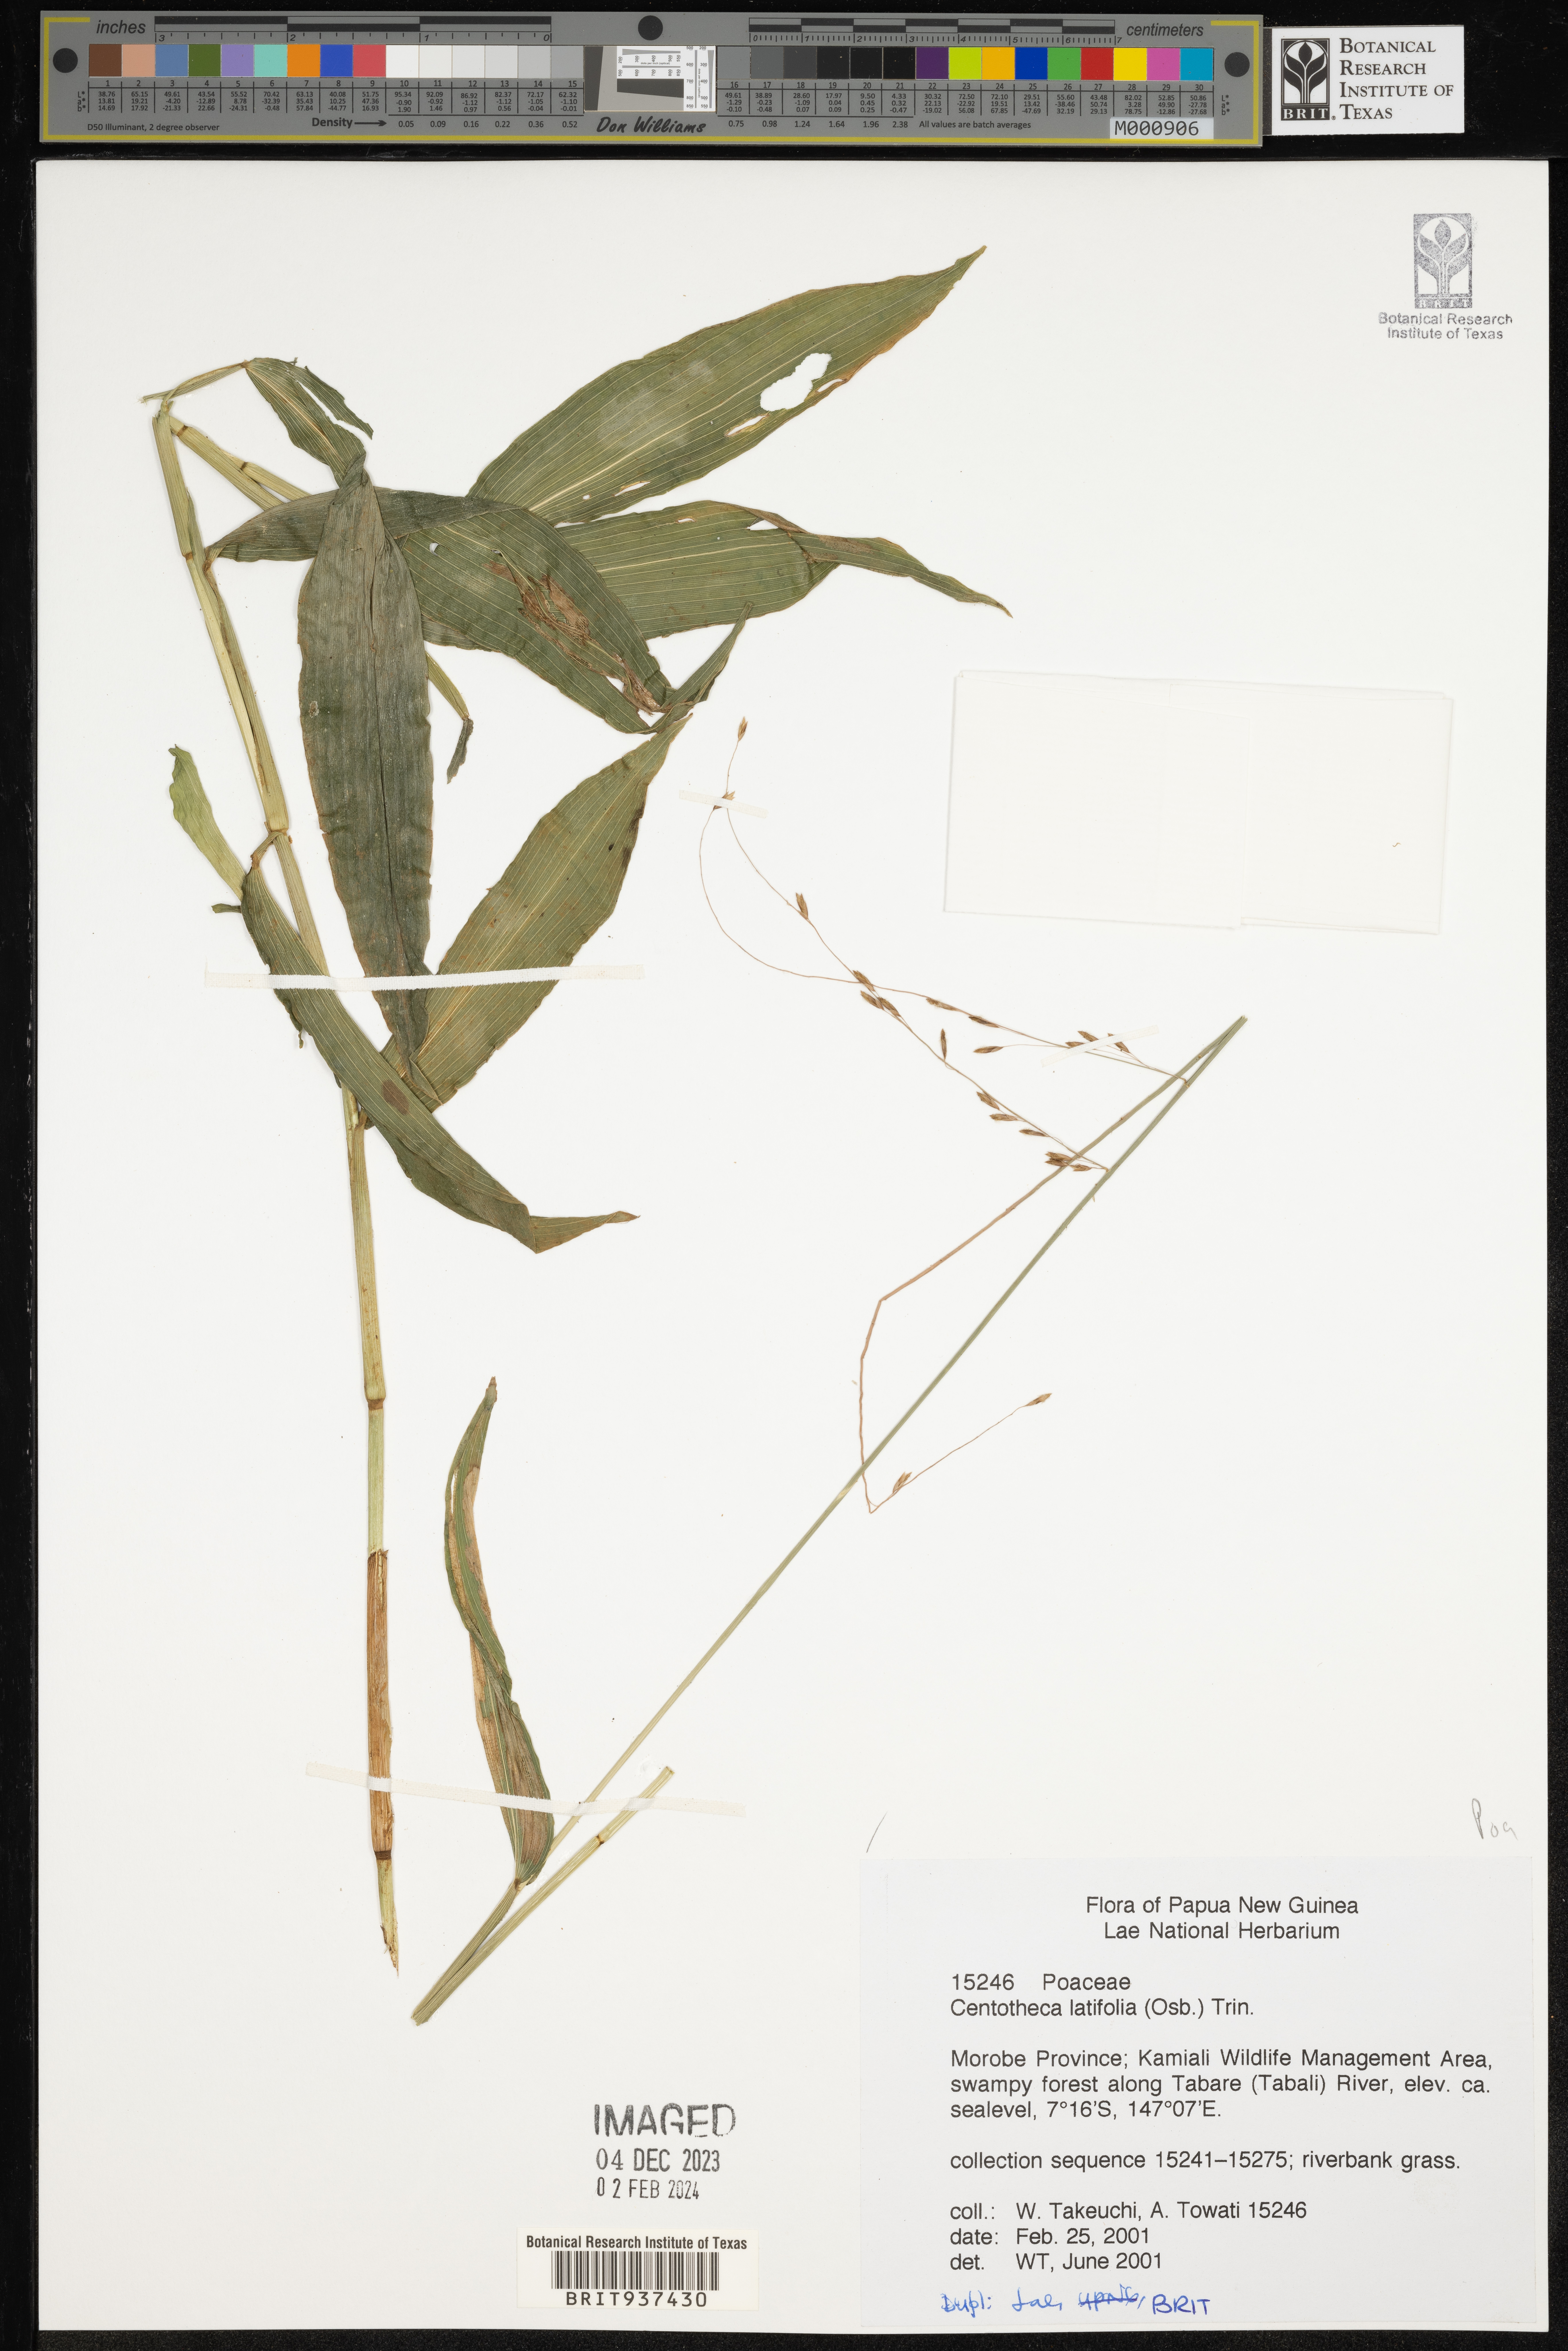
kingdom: Plantae
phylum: Tracheophyta
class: Liliopsida
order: Poales
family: Poaceae
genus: Centotheca
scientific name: Centotheca
